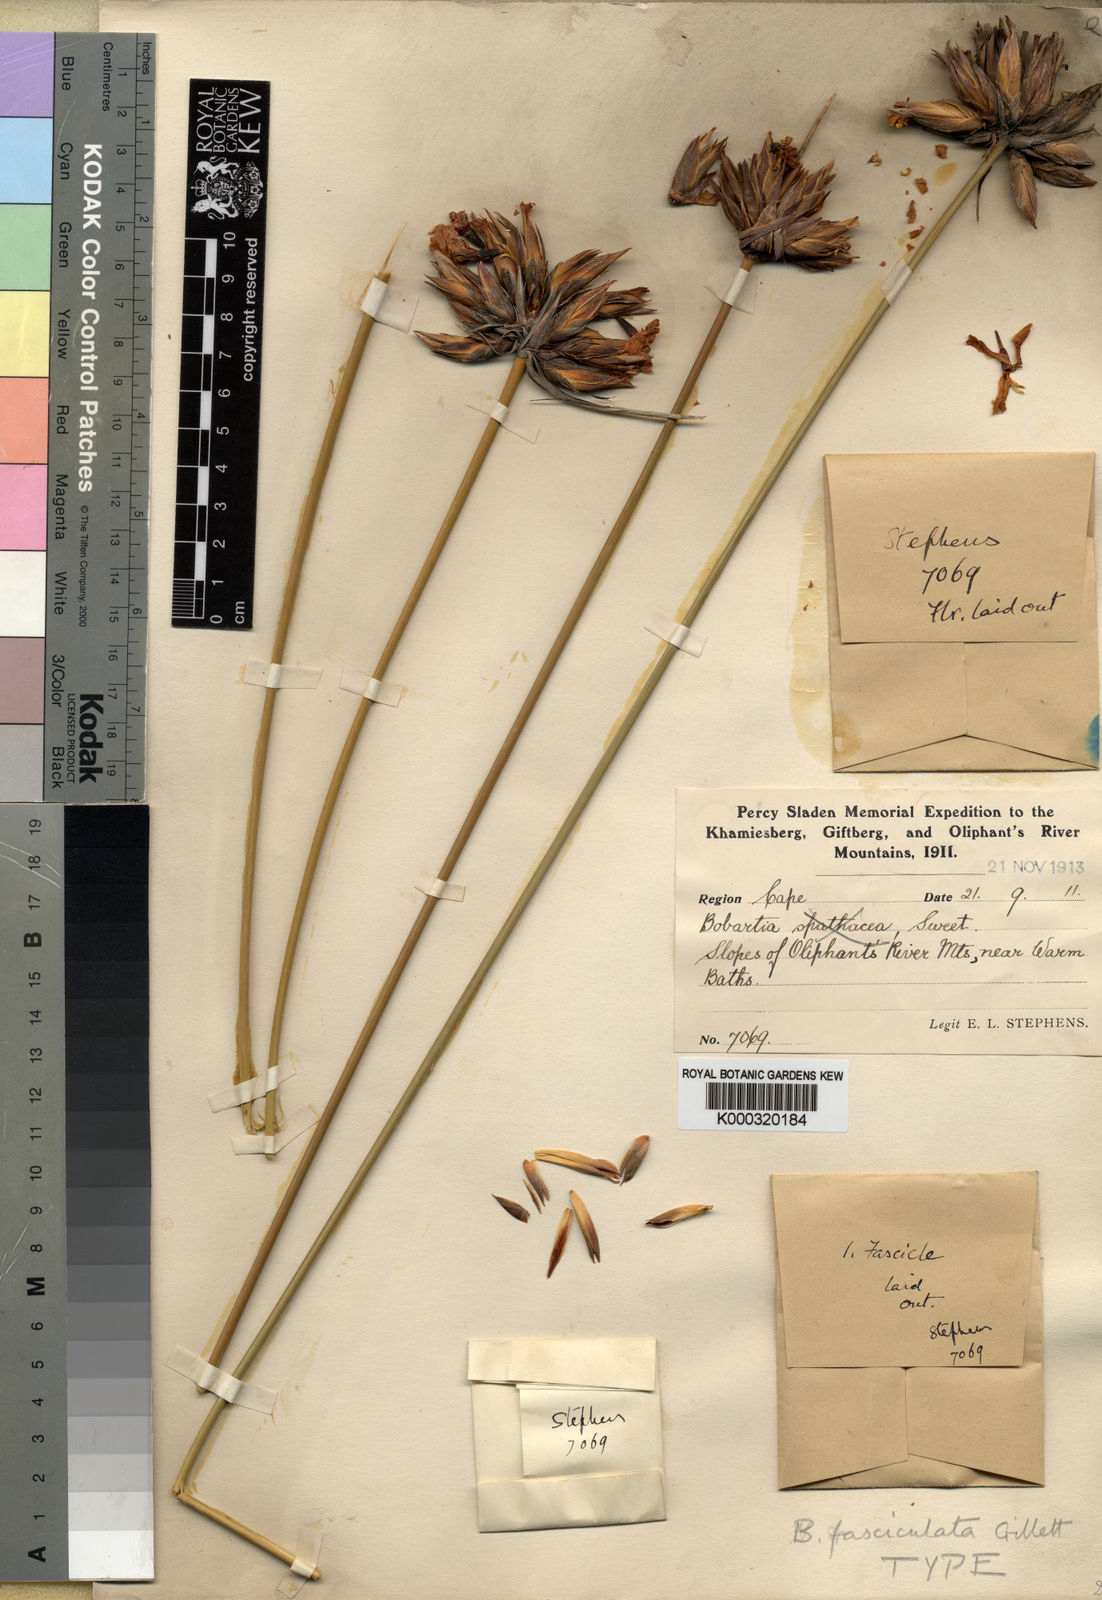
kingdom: Plantae
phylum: Tracheophyta
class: Liliopsida
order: Asparagales
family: Iridaceae
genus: Bobartia
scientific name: Bobartia fasciculata
